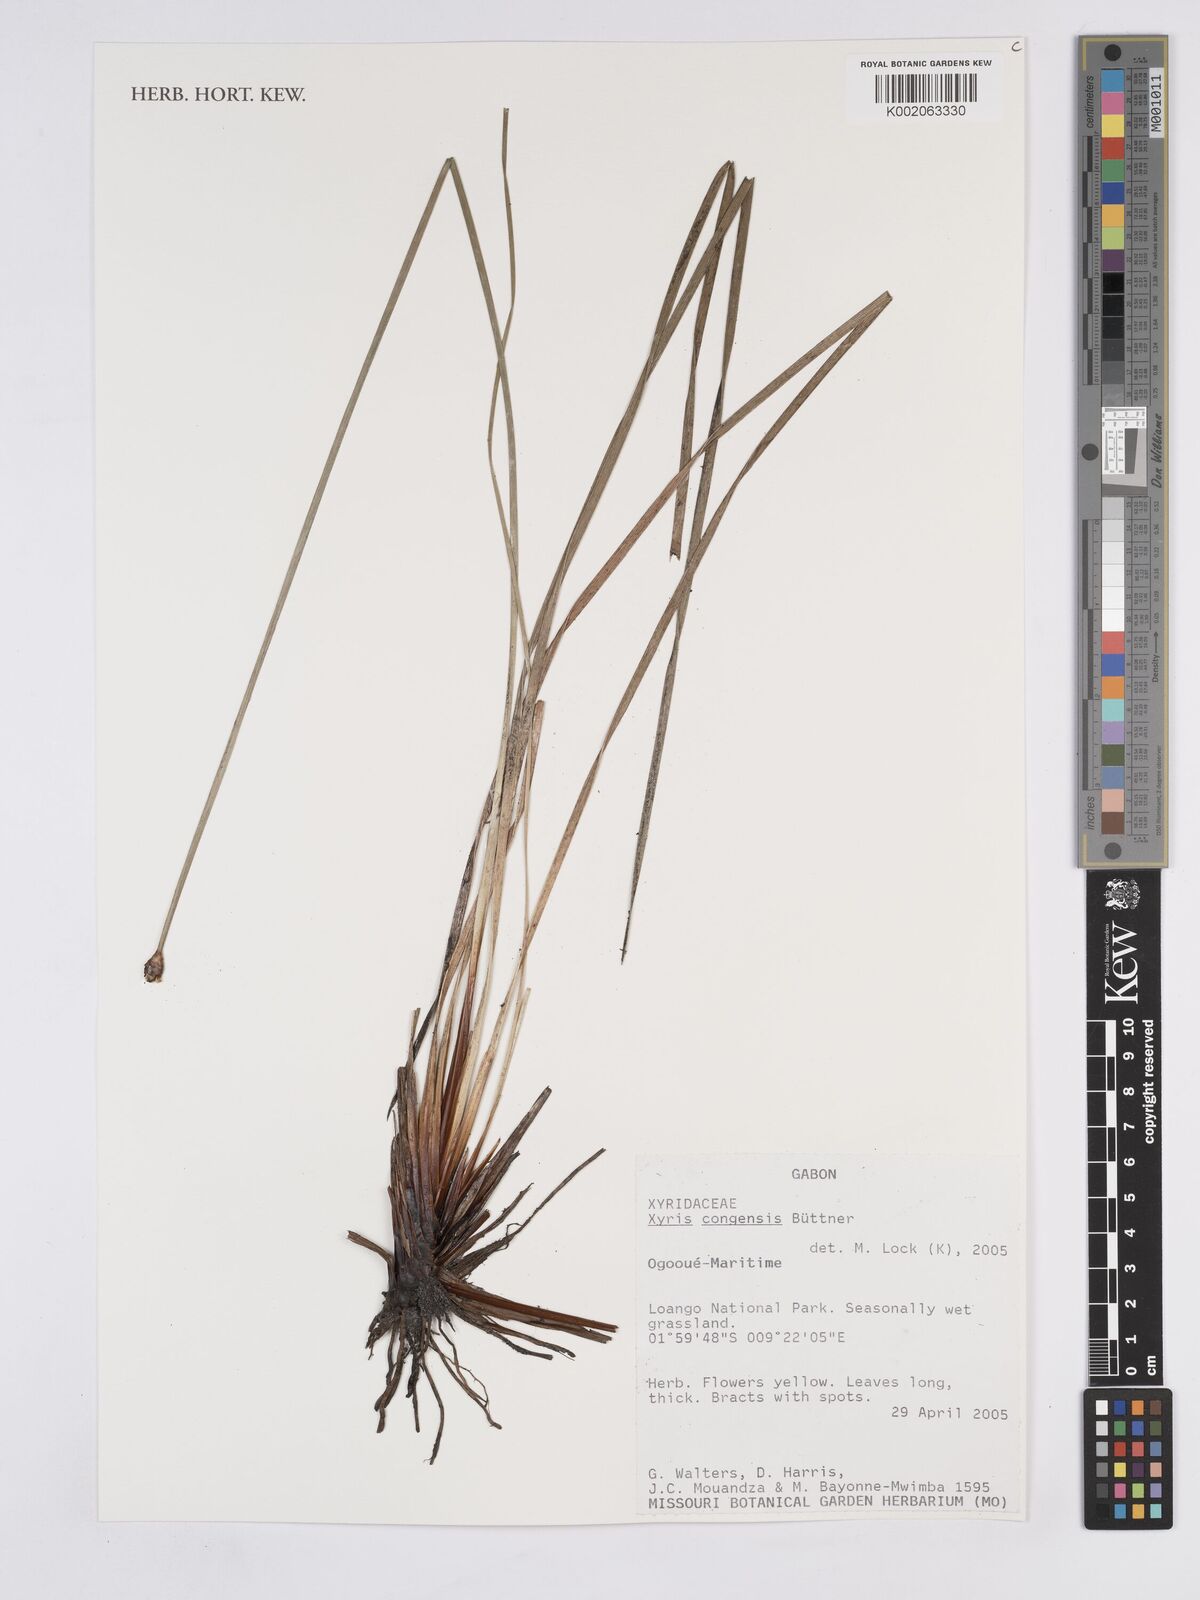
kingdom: Plantae
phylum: Tracheophyta
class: Liliopsida
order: Poales
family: Xyridaceae
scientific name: Xyridaceae
